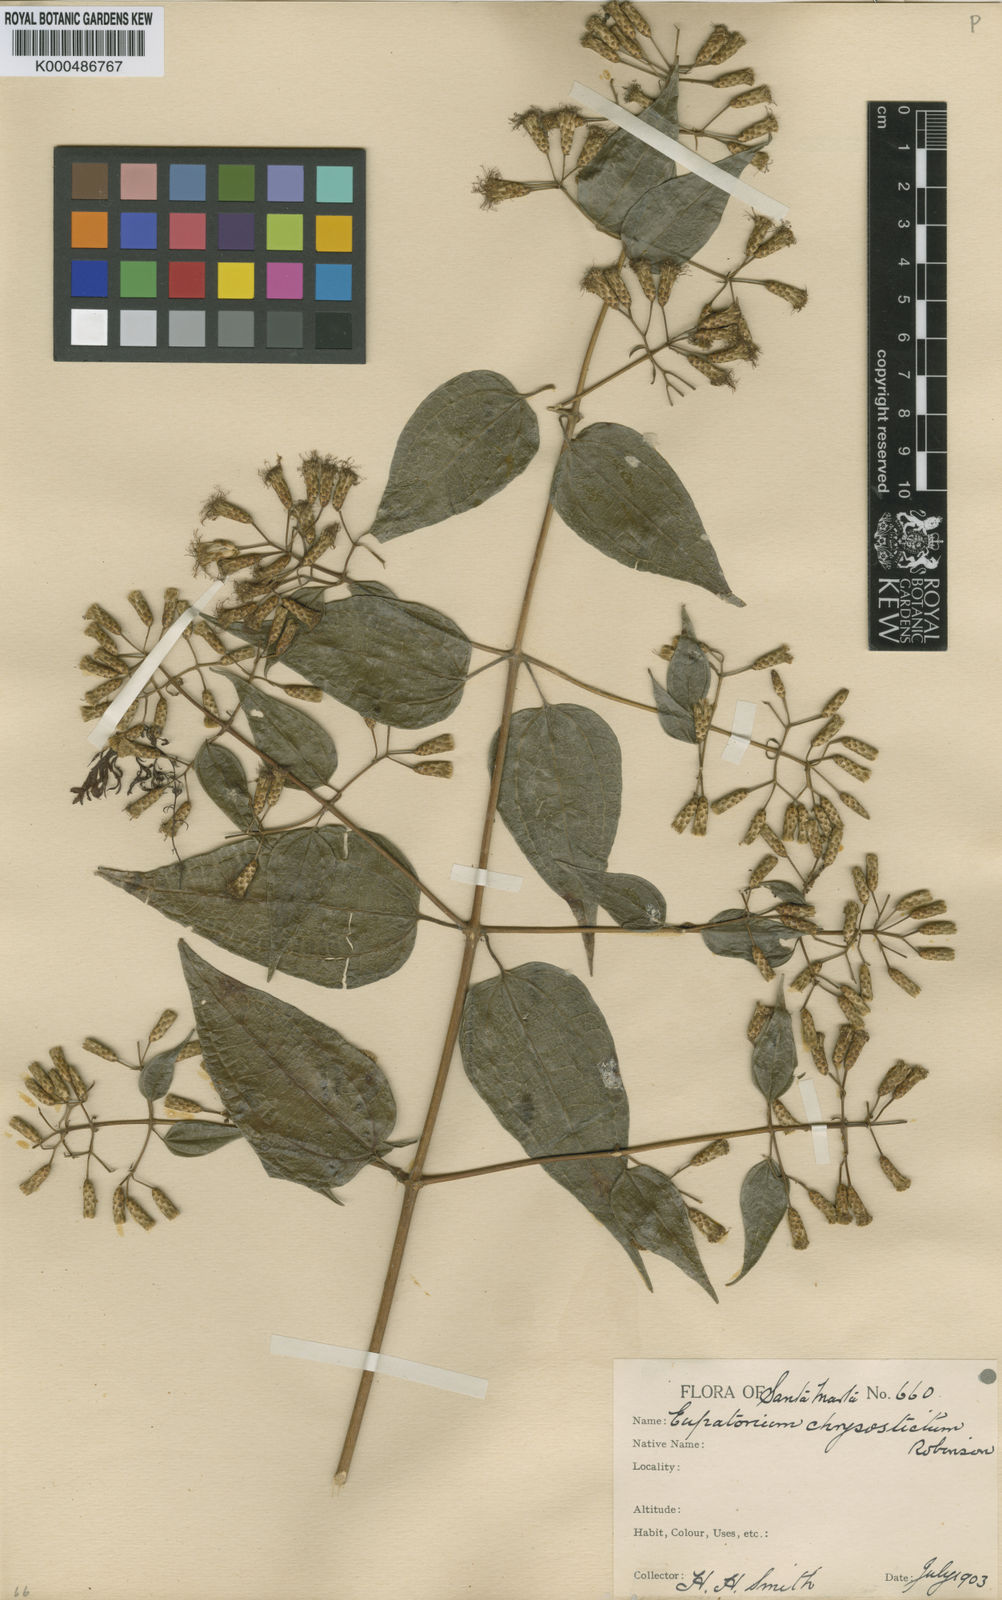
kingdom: Plantae
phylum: Tracheophyta
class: Magnoliopsida
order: Asterales
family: Asteraceae
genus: Chromolaena
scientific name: Chromolaena chrysosticta
